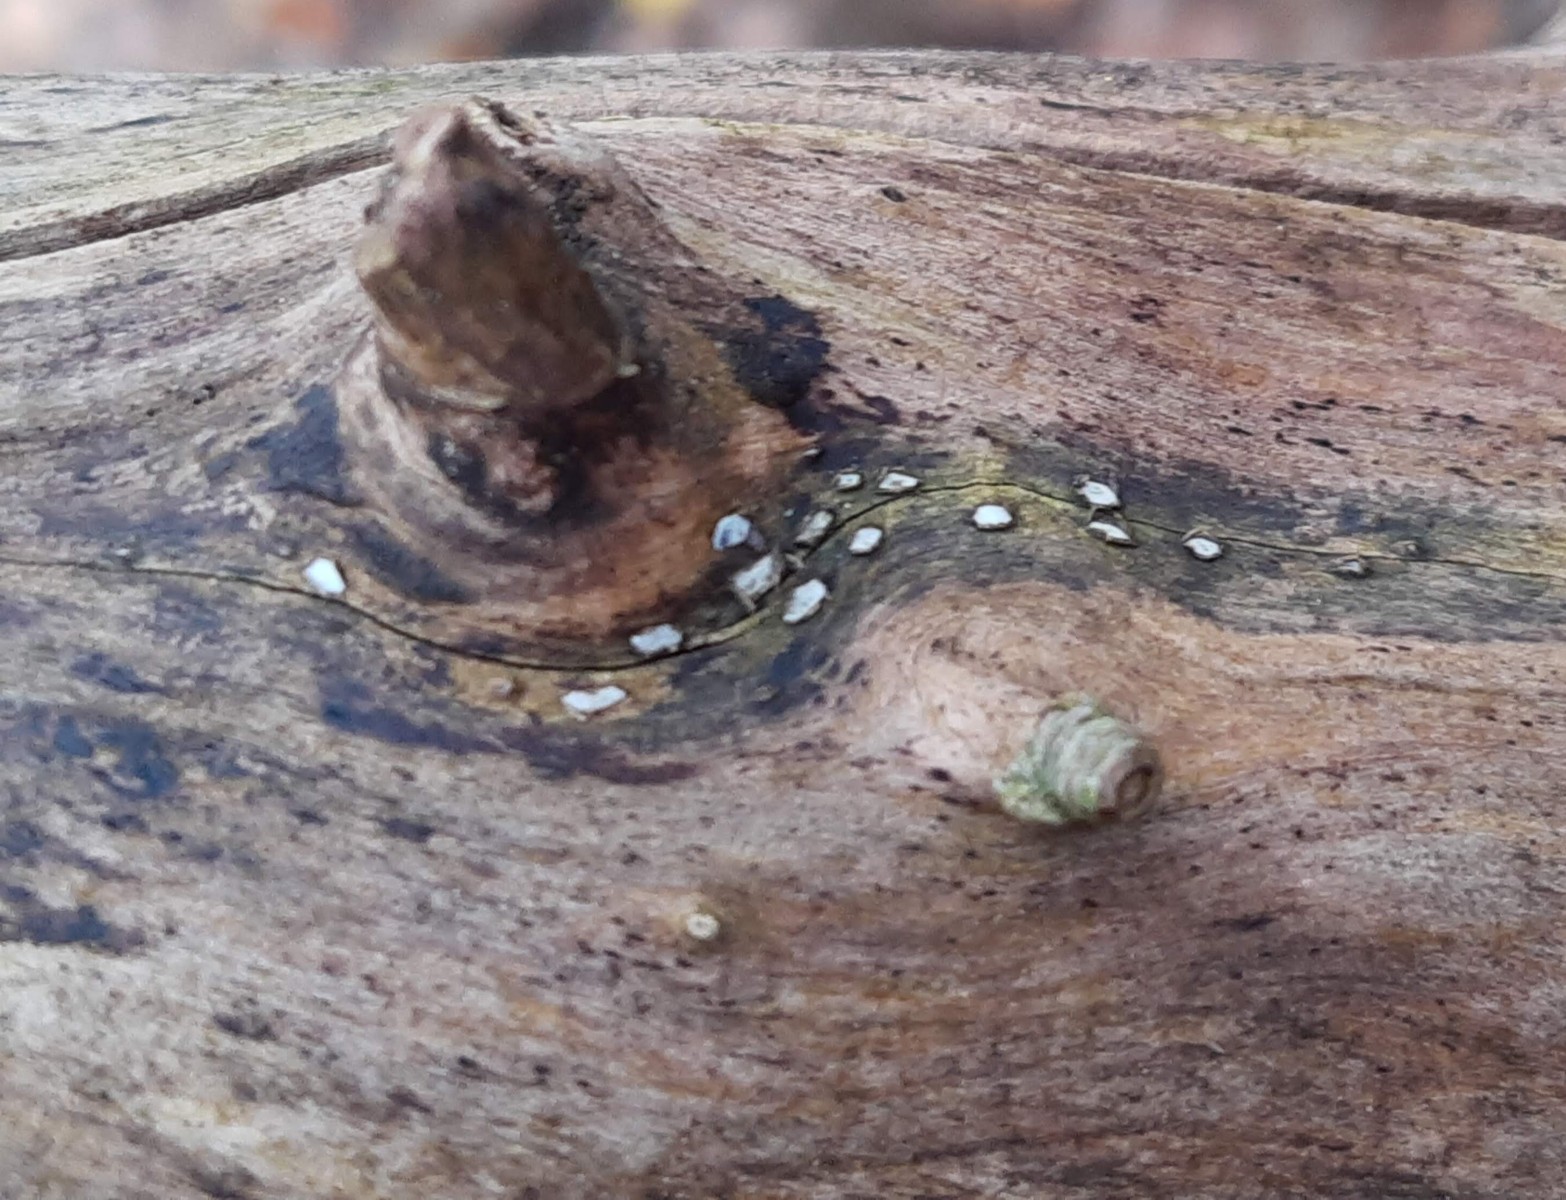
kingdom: Fungi
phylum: Ascomycota
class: Leotiomycetes
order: Chaetomellales
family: Marthamycetaceae
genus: Propolis
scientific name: Propolis farinosa
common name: almindelig vedsprængerskive
